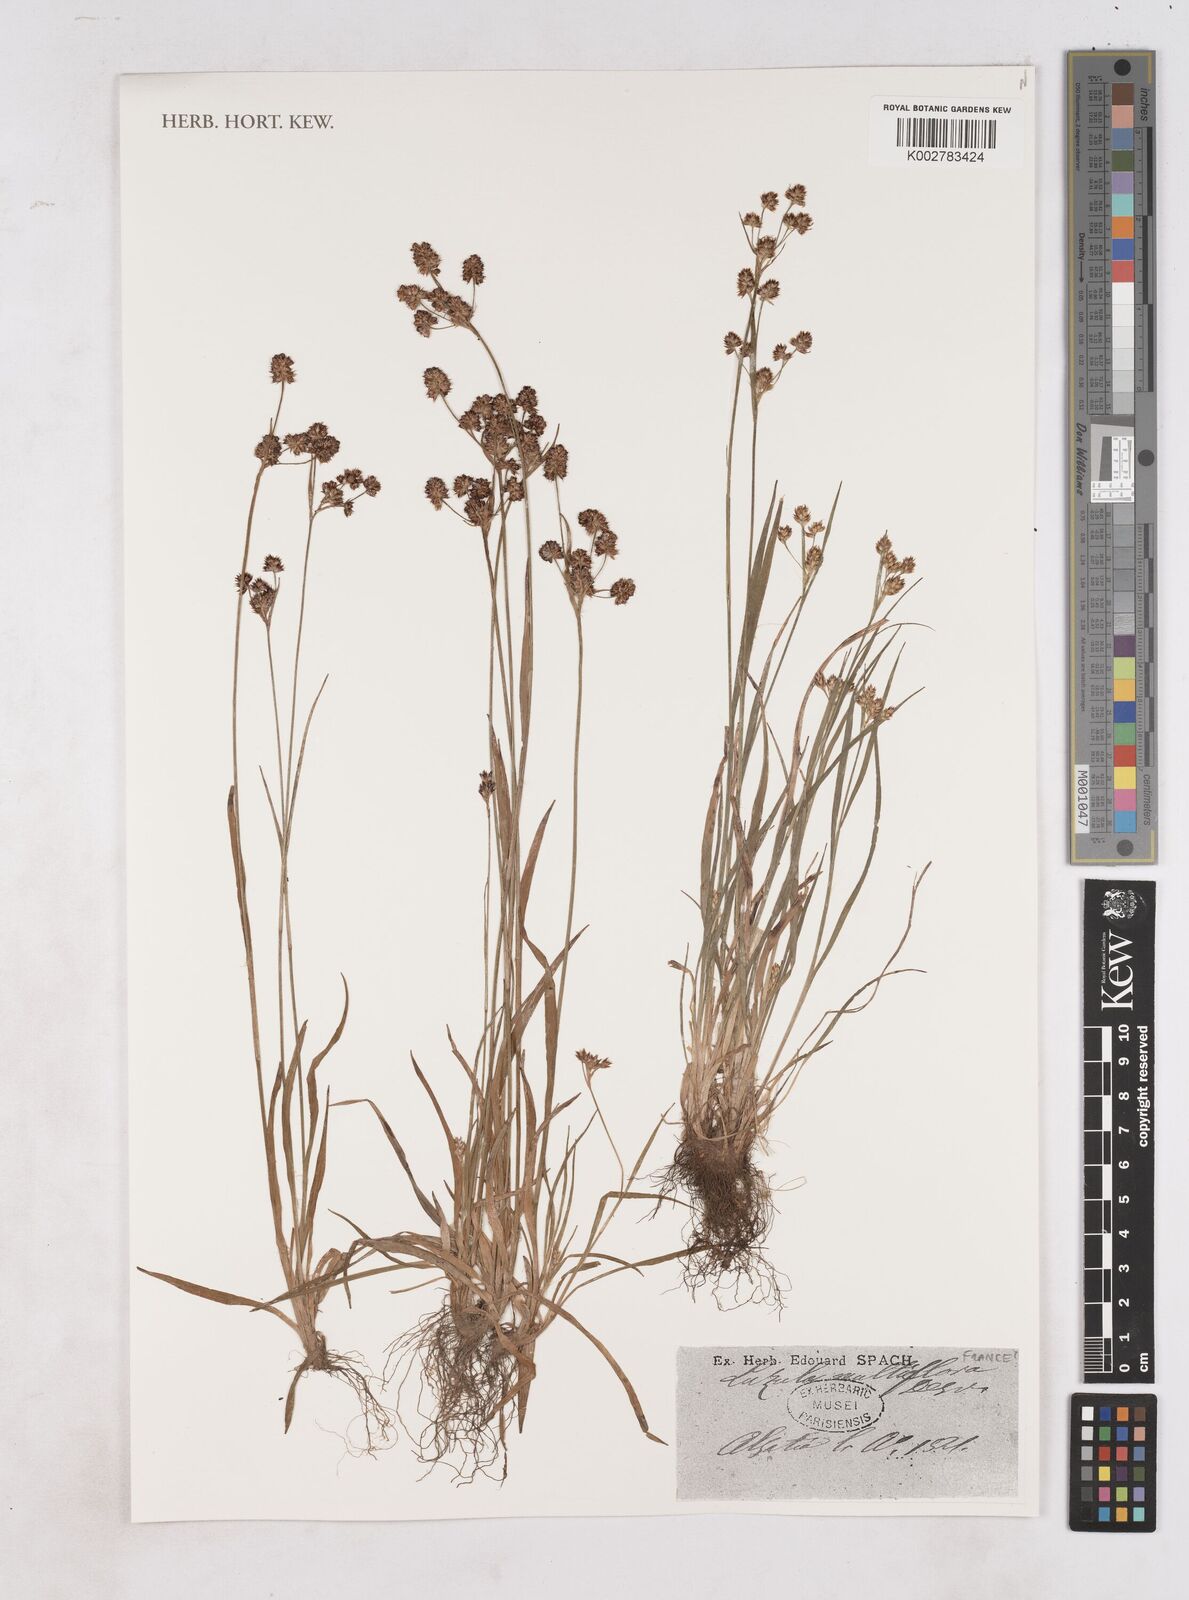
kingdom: Plantae
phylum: Tracheophyta
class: Liliopsida
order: Poales
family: Juncaceae
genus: Luzula
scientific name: Luzula multiflora
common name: Heath wood-rush
